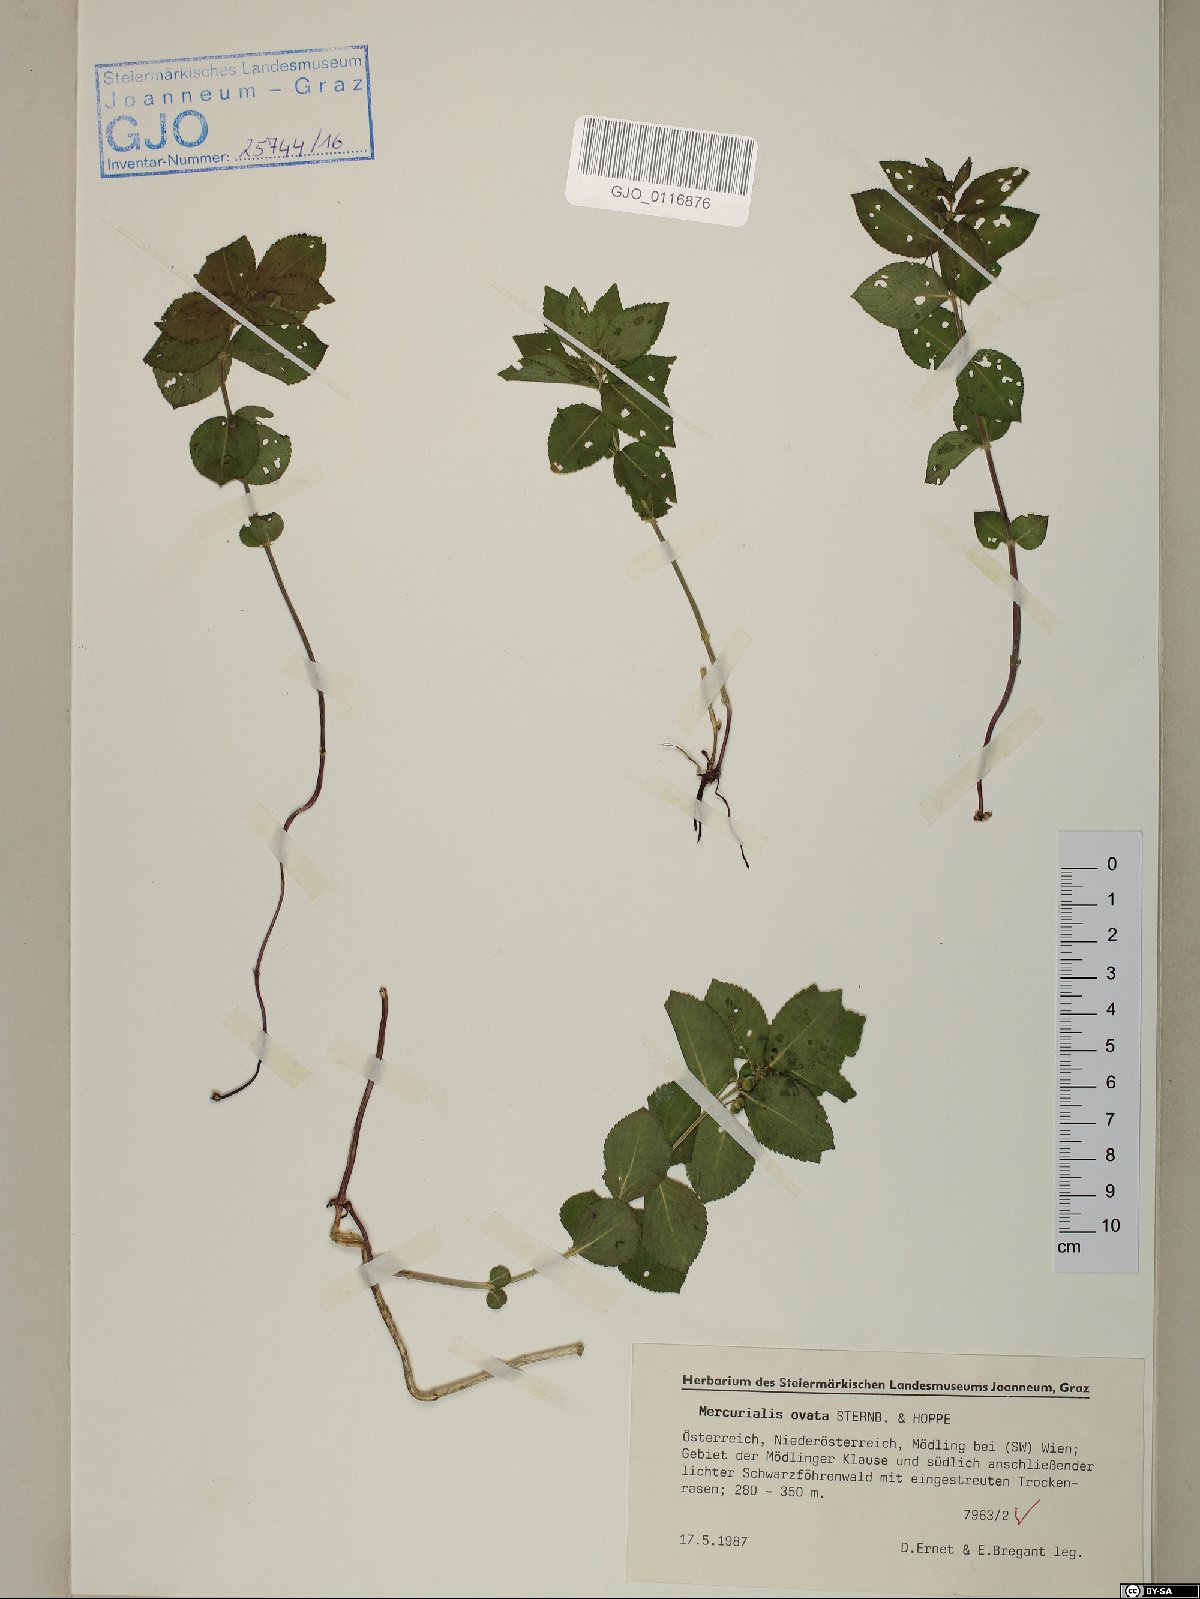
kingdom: Plantae
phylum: Tracheophyta
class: Magnoliopsida
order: Malpighiales
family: Euphorbiaceae
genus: Mercurialis
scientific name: Mercurialis ovata
